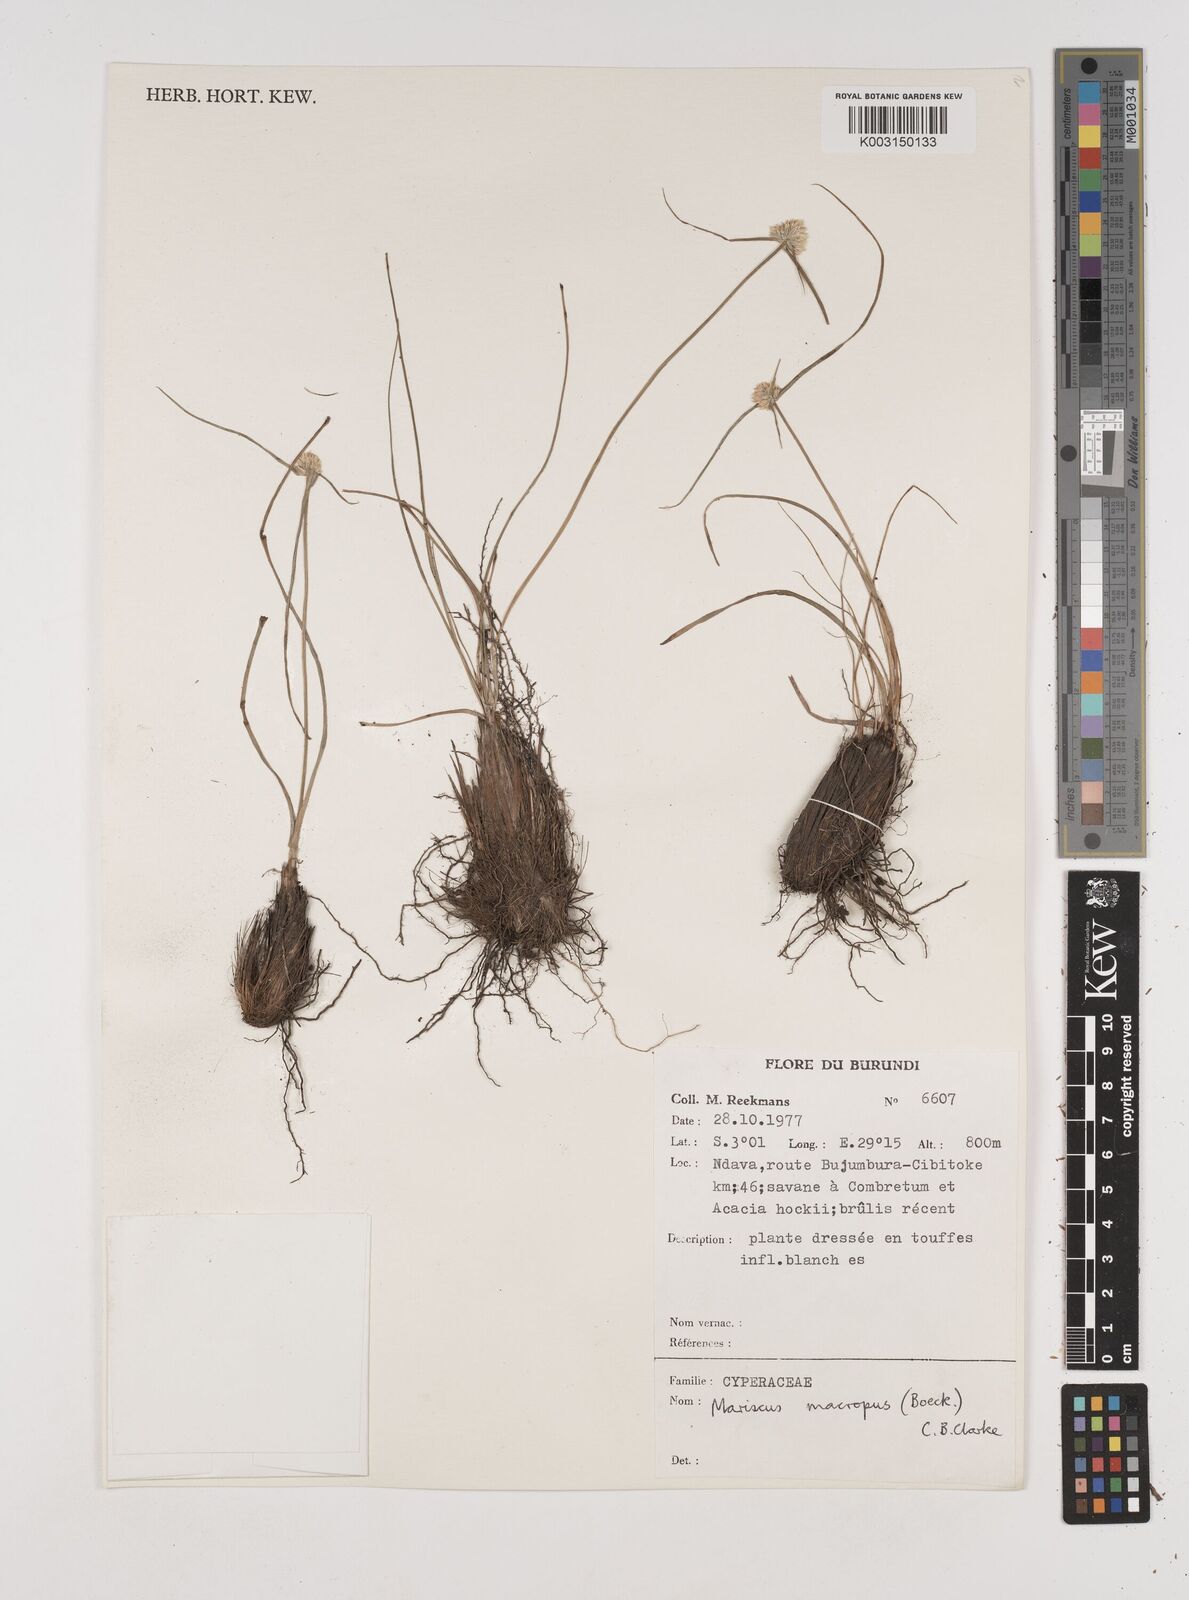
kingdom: Plantae
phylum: Tracheophyta
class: Liliopsida
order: Poales
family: Cyperaceae
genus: Cyperus
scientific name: Cyperus mollipes
